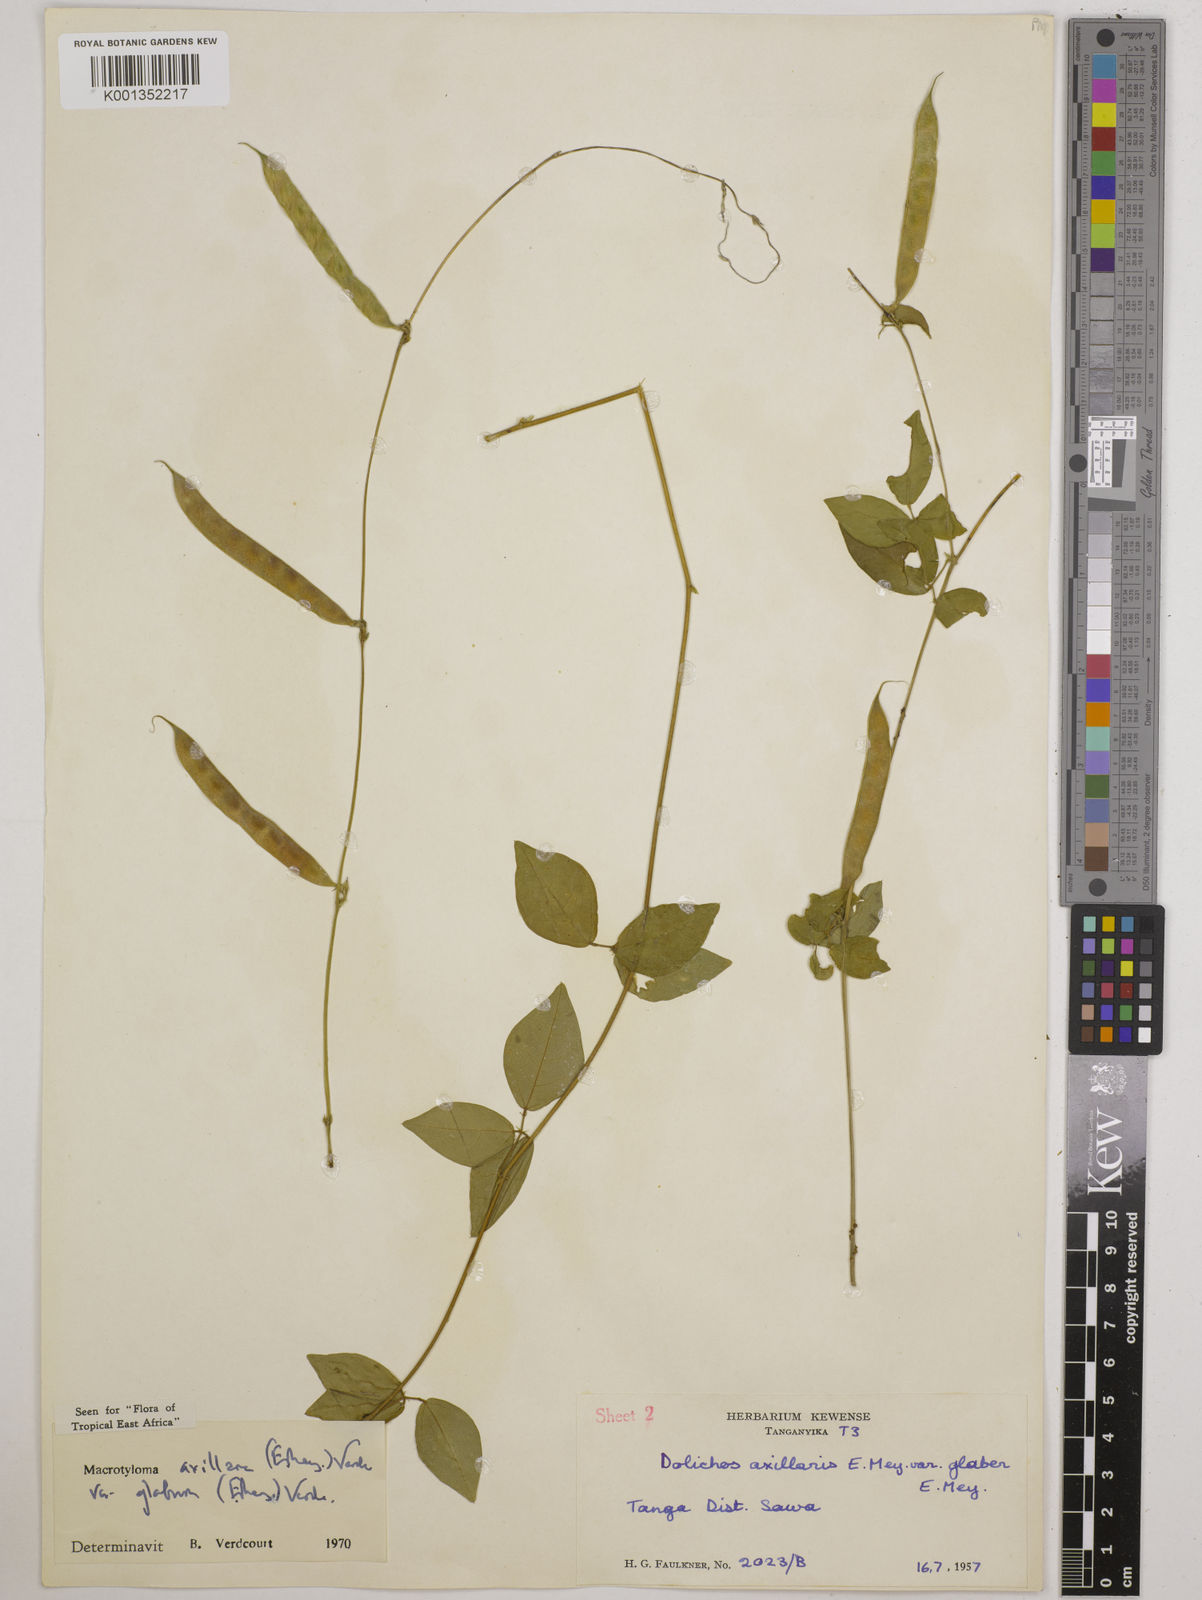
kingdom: Plantae
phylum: Tracheophyta
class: Magnoliopsida
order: Fabales
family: Fabaceae
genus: Macrotyloma
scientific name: Macrotyloma
